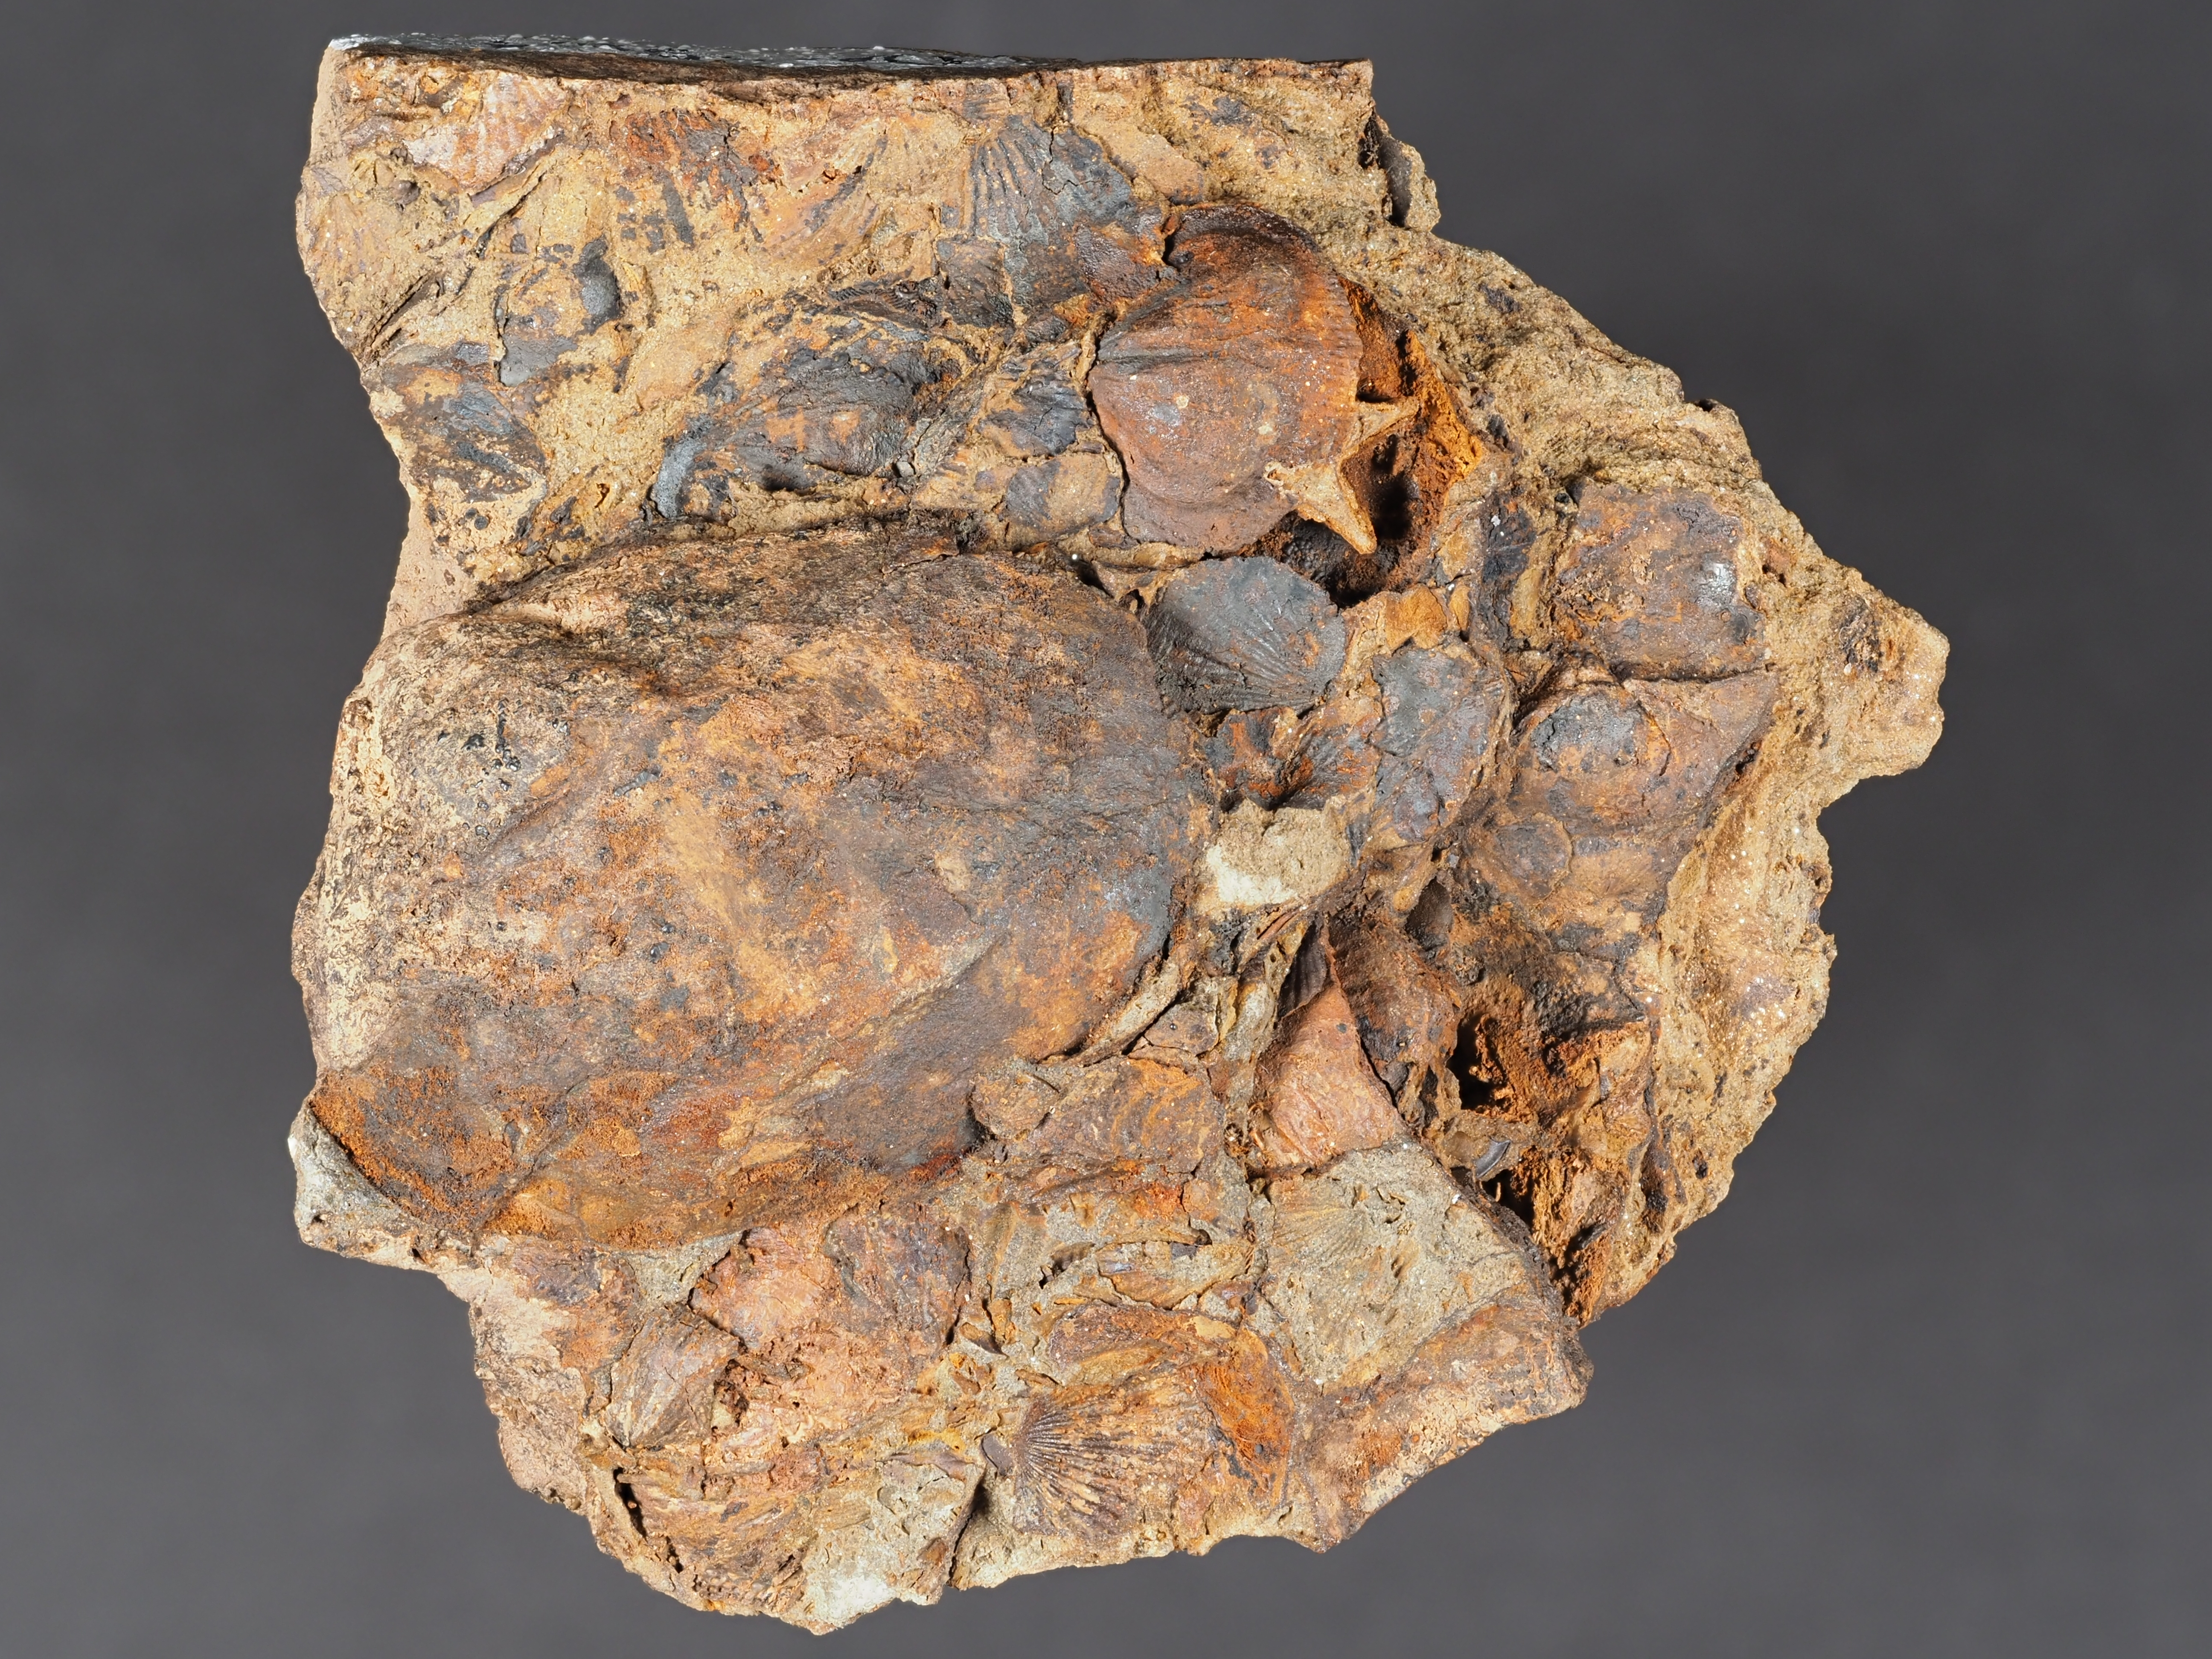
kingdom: Animalia
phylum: Brachiopoda
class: Rhynchonellata
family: Rhipidomellidae
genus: Platyorthis
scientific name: Platyorthis
